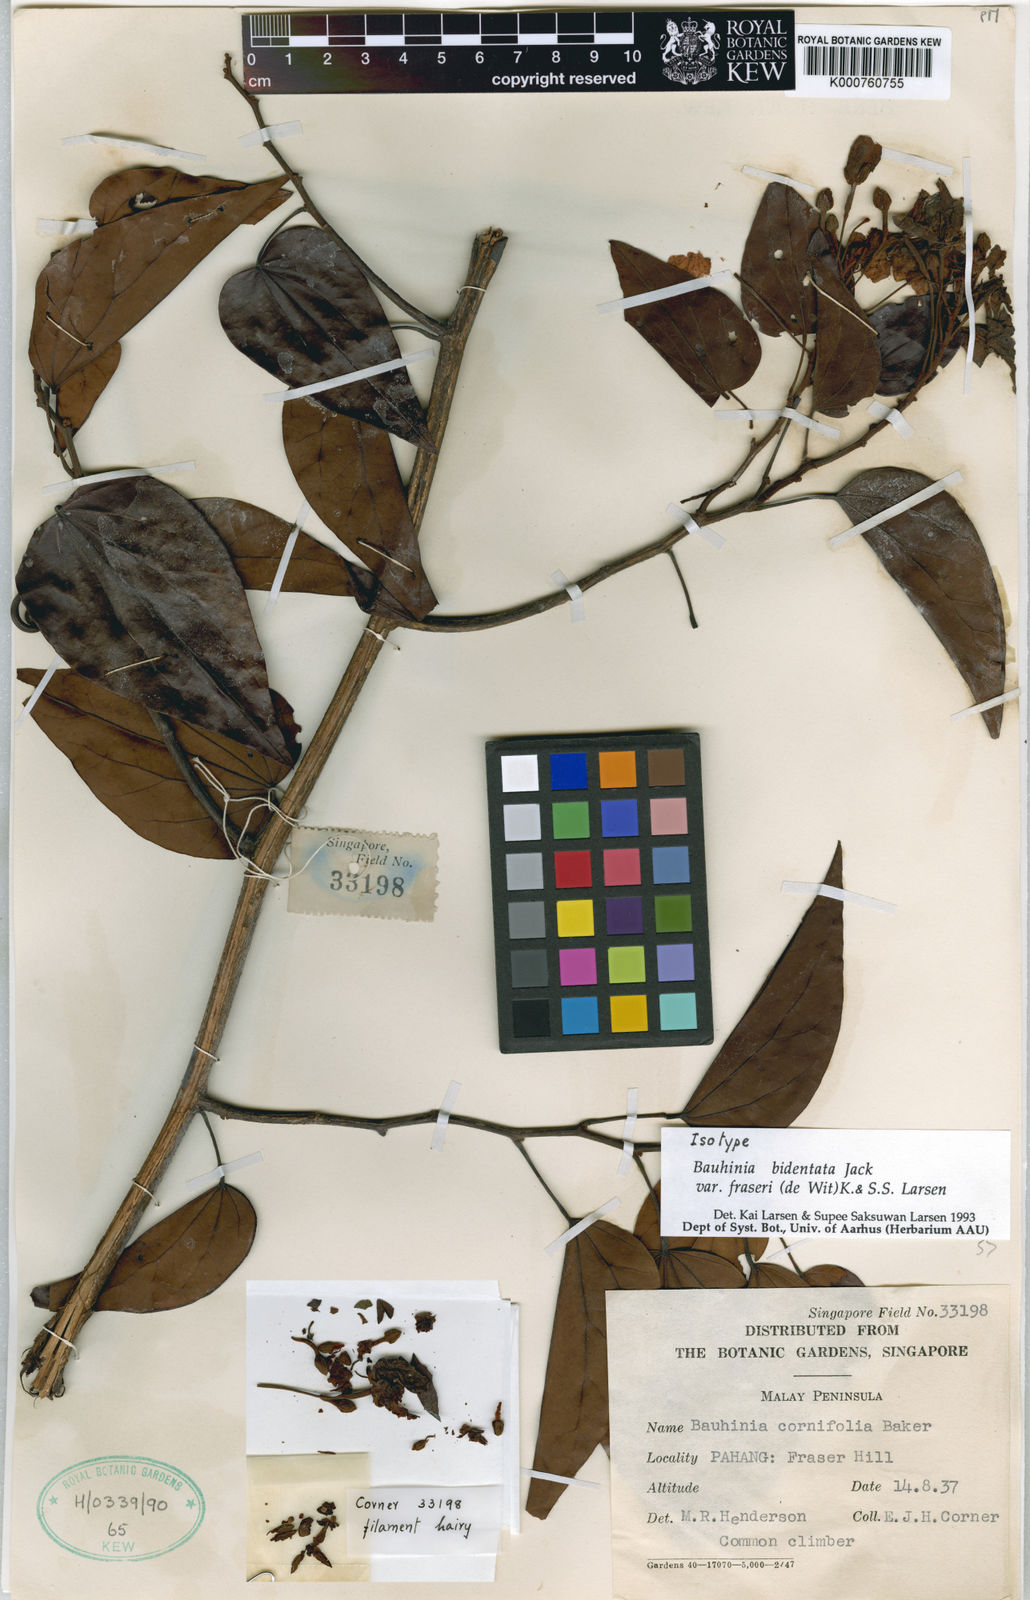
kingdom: Plantae
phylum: Tracheophyta
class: Magnoliopsida
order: Fabales
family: Fabaceae
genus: Phanera
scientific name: Phanera bidentata
